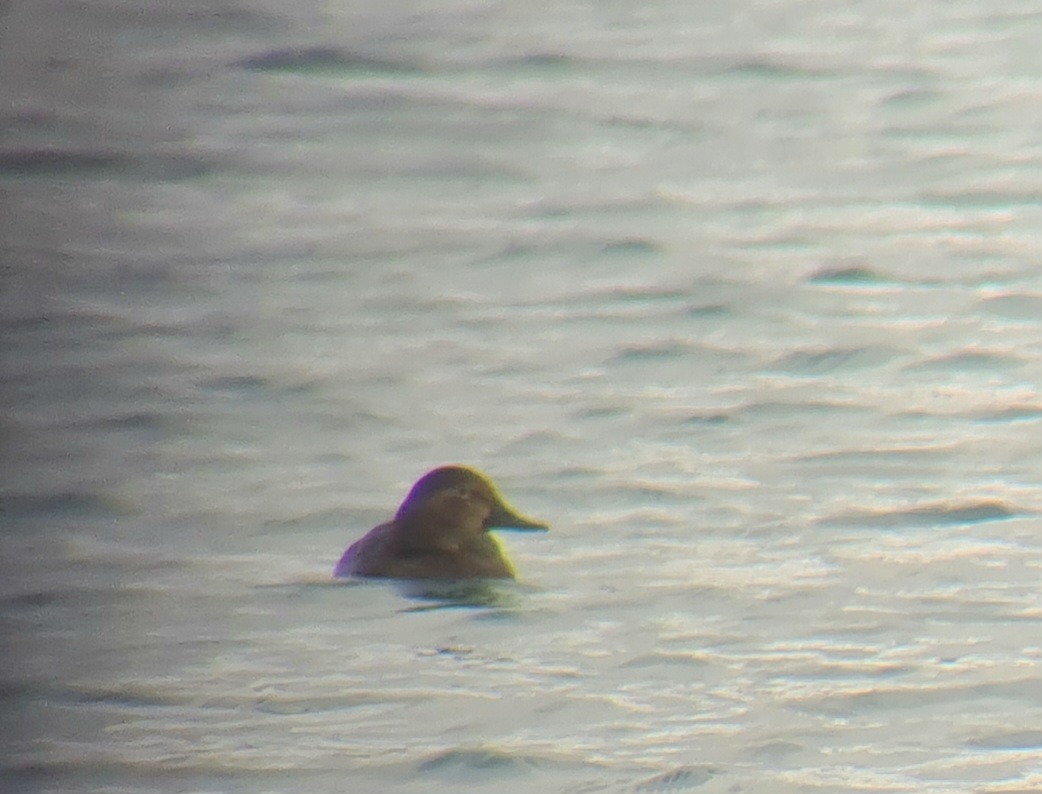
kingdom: Animalia
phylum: Chordata
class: Aves
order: Anseriformes
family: Anatidae
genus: Aythya
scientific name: Aythya ferina
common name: Taffeland
